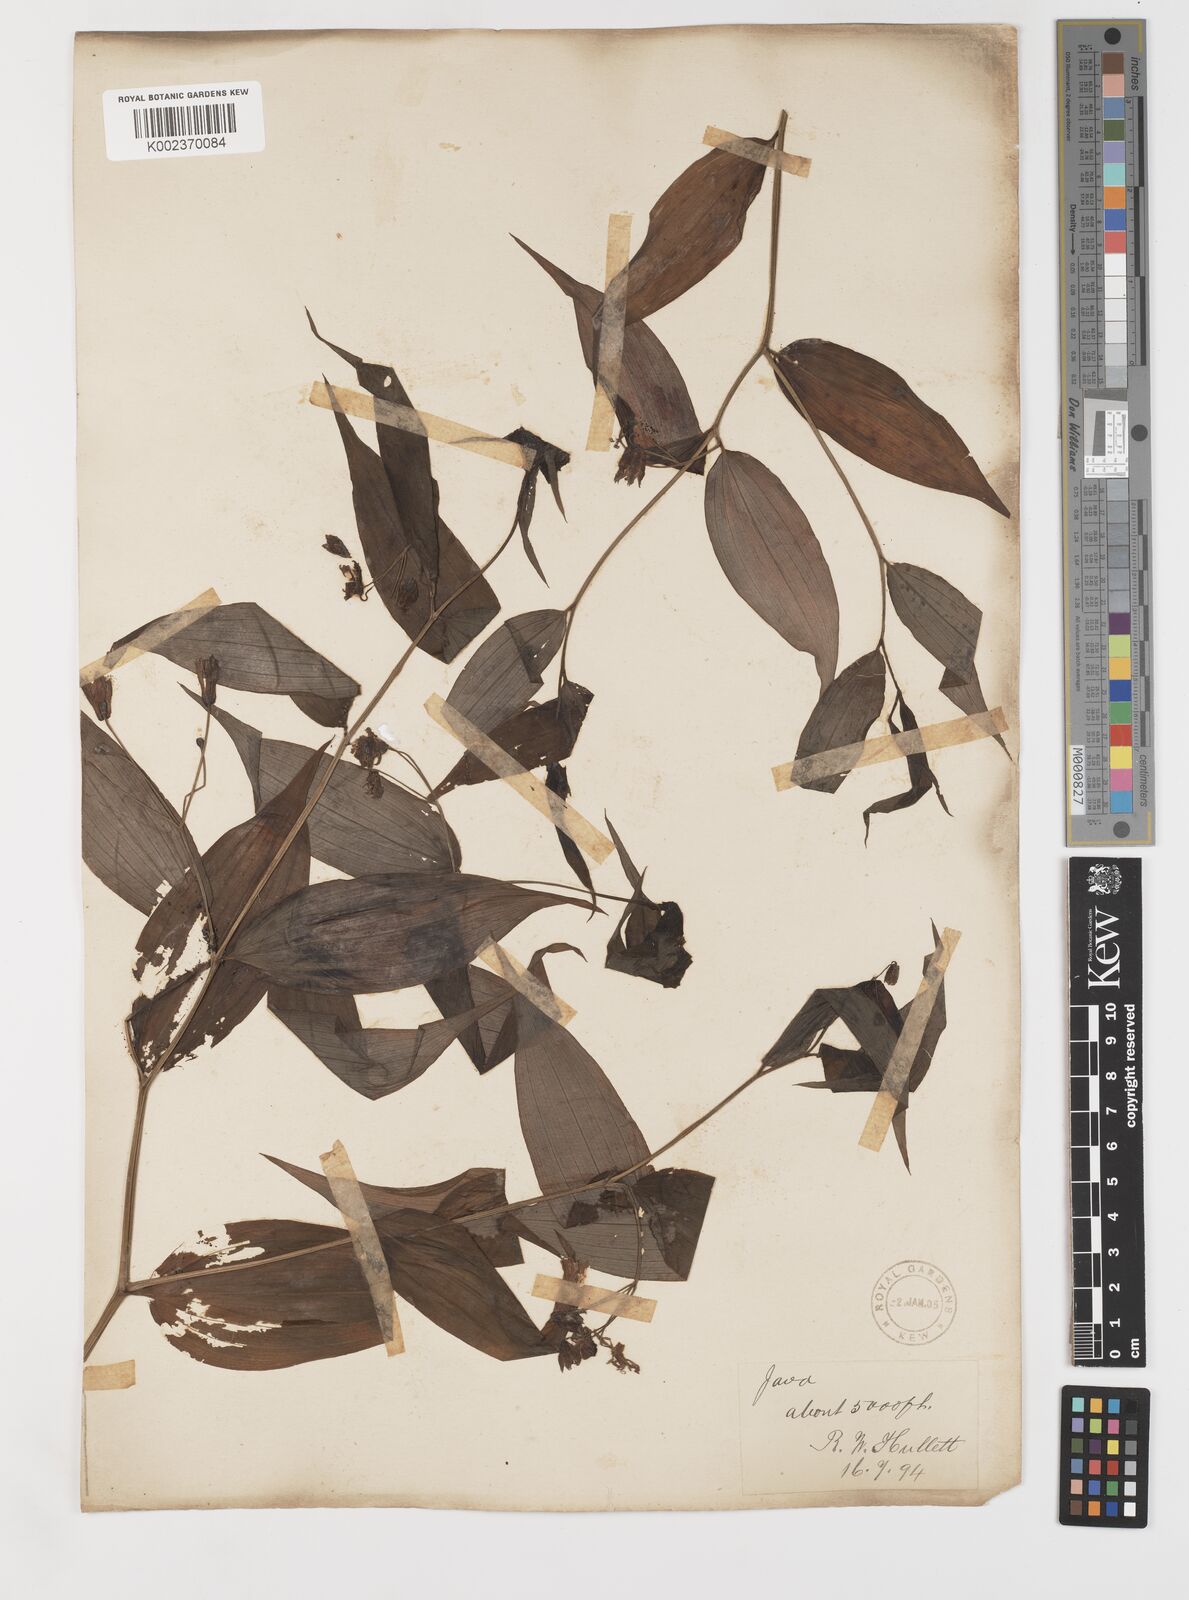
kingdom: Plantae
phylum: Tracheophyta
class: Liliopsida
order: Liliales
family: Colchicaceae
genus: Disporum
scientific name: Disporum cantoniense
